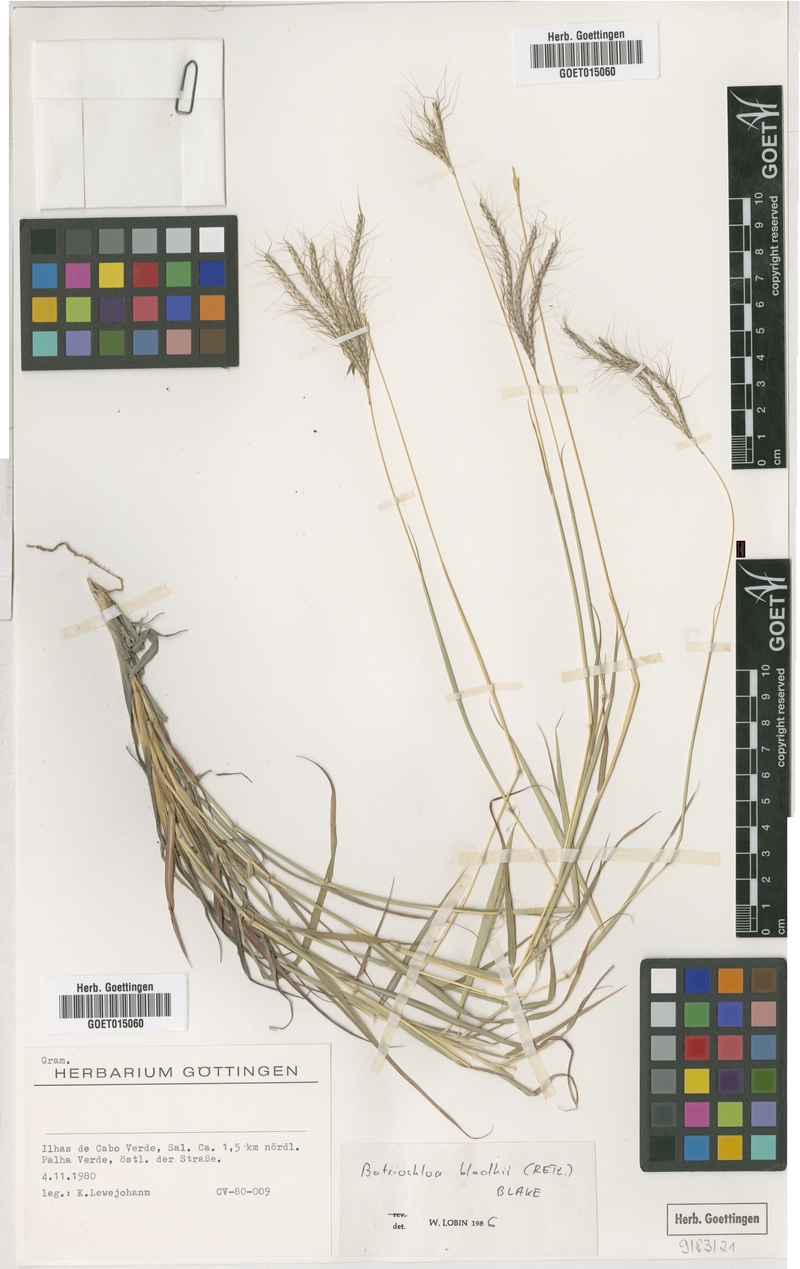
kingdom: Plantae
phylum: Tracheophyta
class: Liliopsida
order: Poales
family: Poaceae
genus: Bothriochloa
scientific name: Bothriochloa bladhii
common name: Caucasian bluestem
